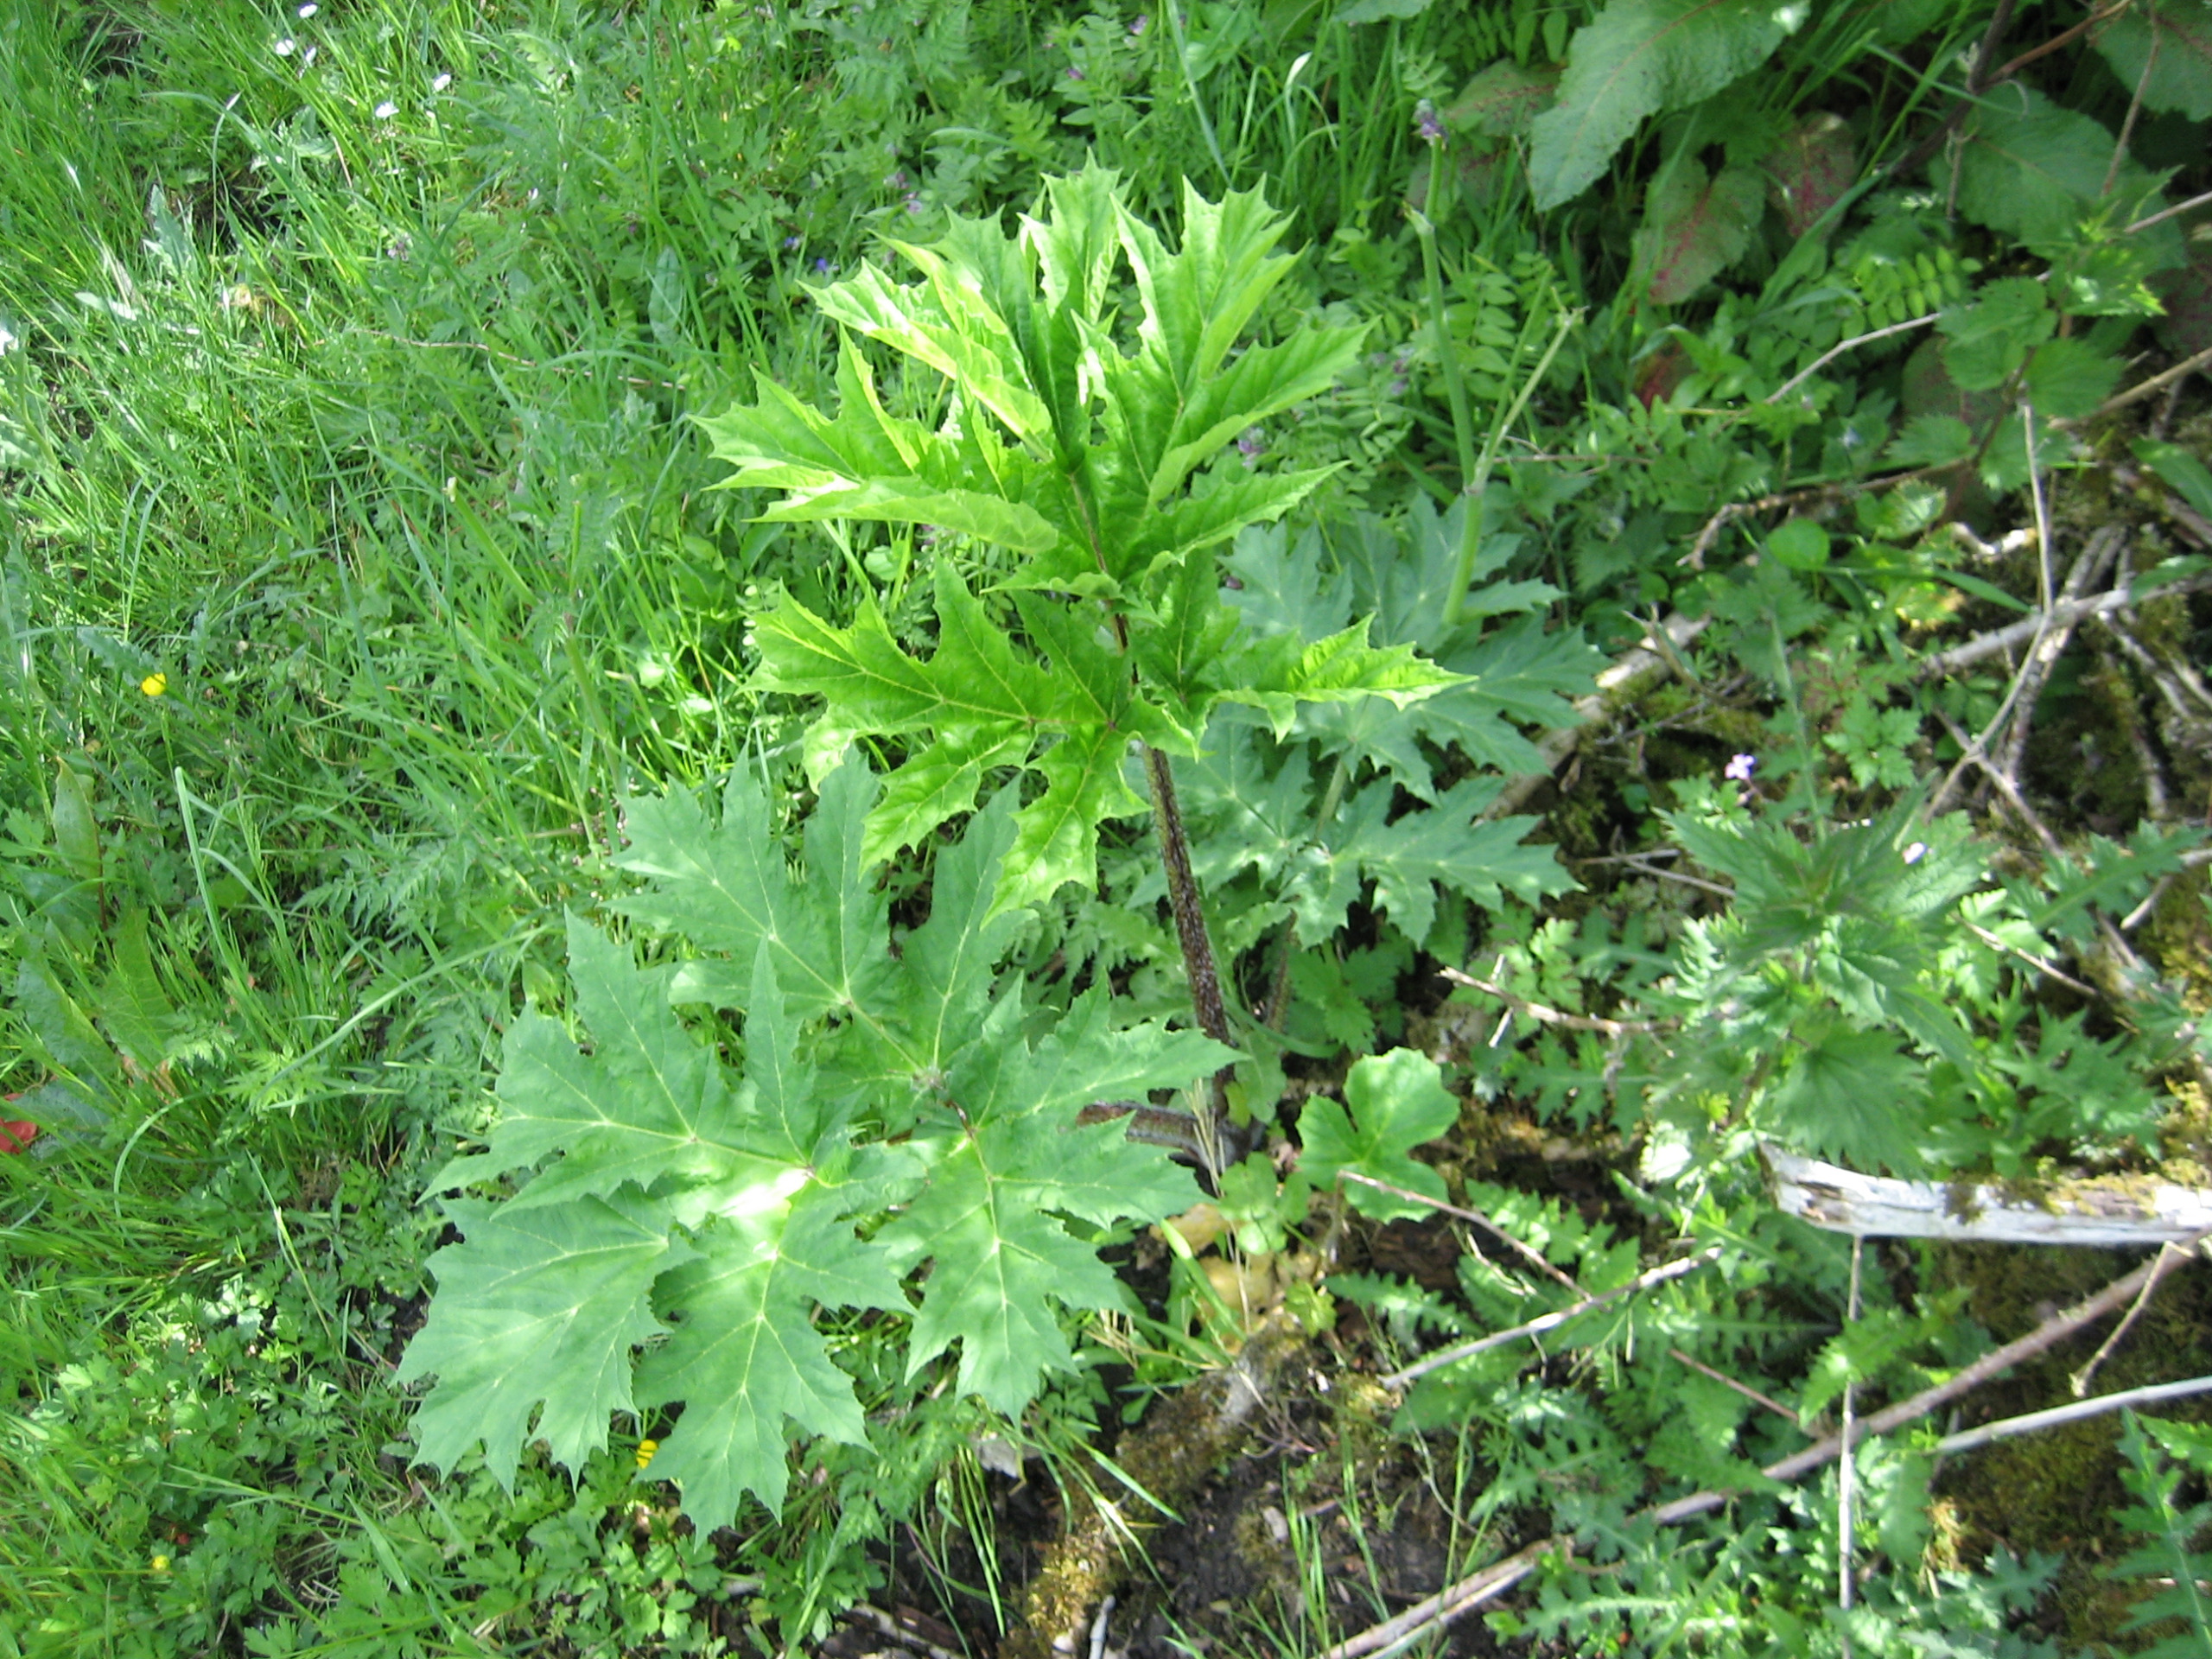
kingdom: Plantae
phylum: Tracheophyta
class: Magnoliopsida
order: Apiales
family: Apiaceae
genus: Heracleum
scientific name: Heracleum mantegazzianum
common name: Kæmpe-bjørneklo
